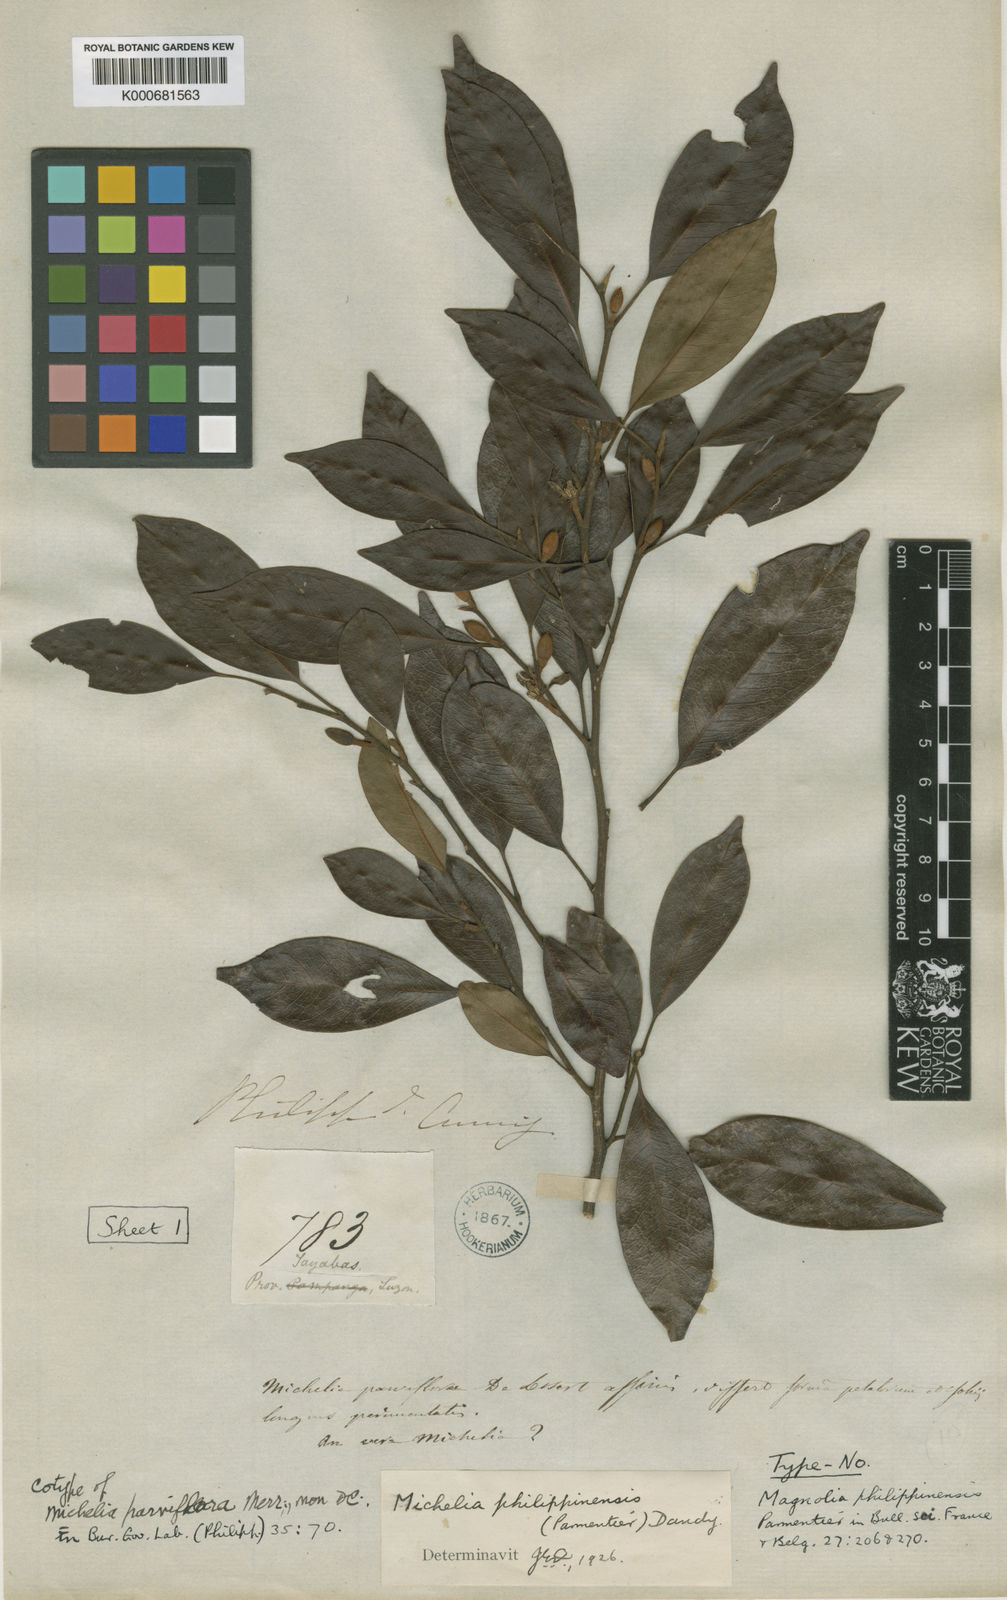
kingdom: Plantae
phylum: Tracheophyta
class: Magnoliopsida
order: Magnoliales
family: Magnoliaceae
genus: Magnolia
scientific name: Magnolia philippinensis
